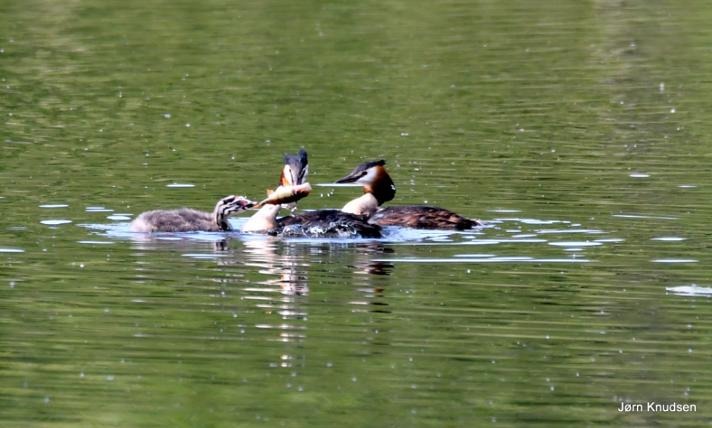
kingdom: Animalia
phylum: Chordata
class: Aves
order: Podicipediformes
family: Podicipedidae
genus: Podiceps
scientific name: Podiceps cristatus
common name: Toppet lappedykker
